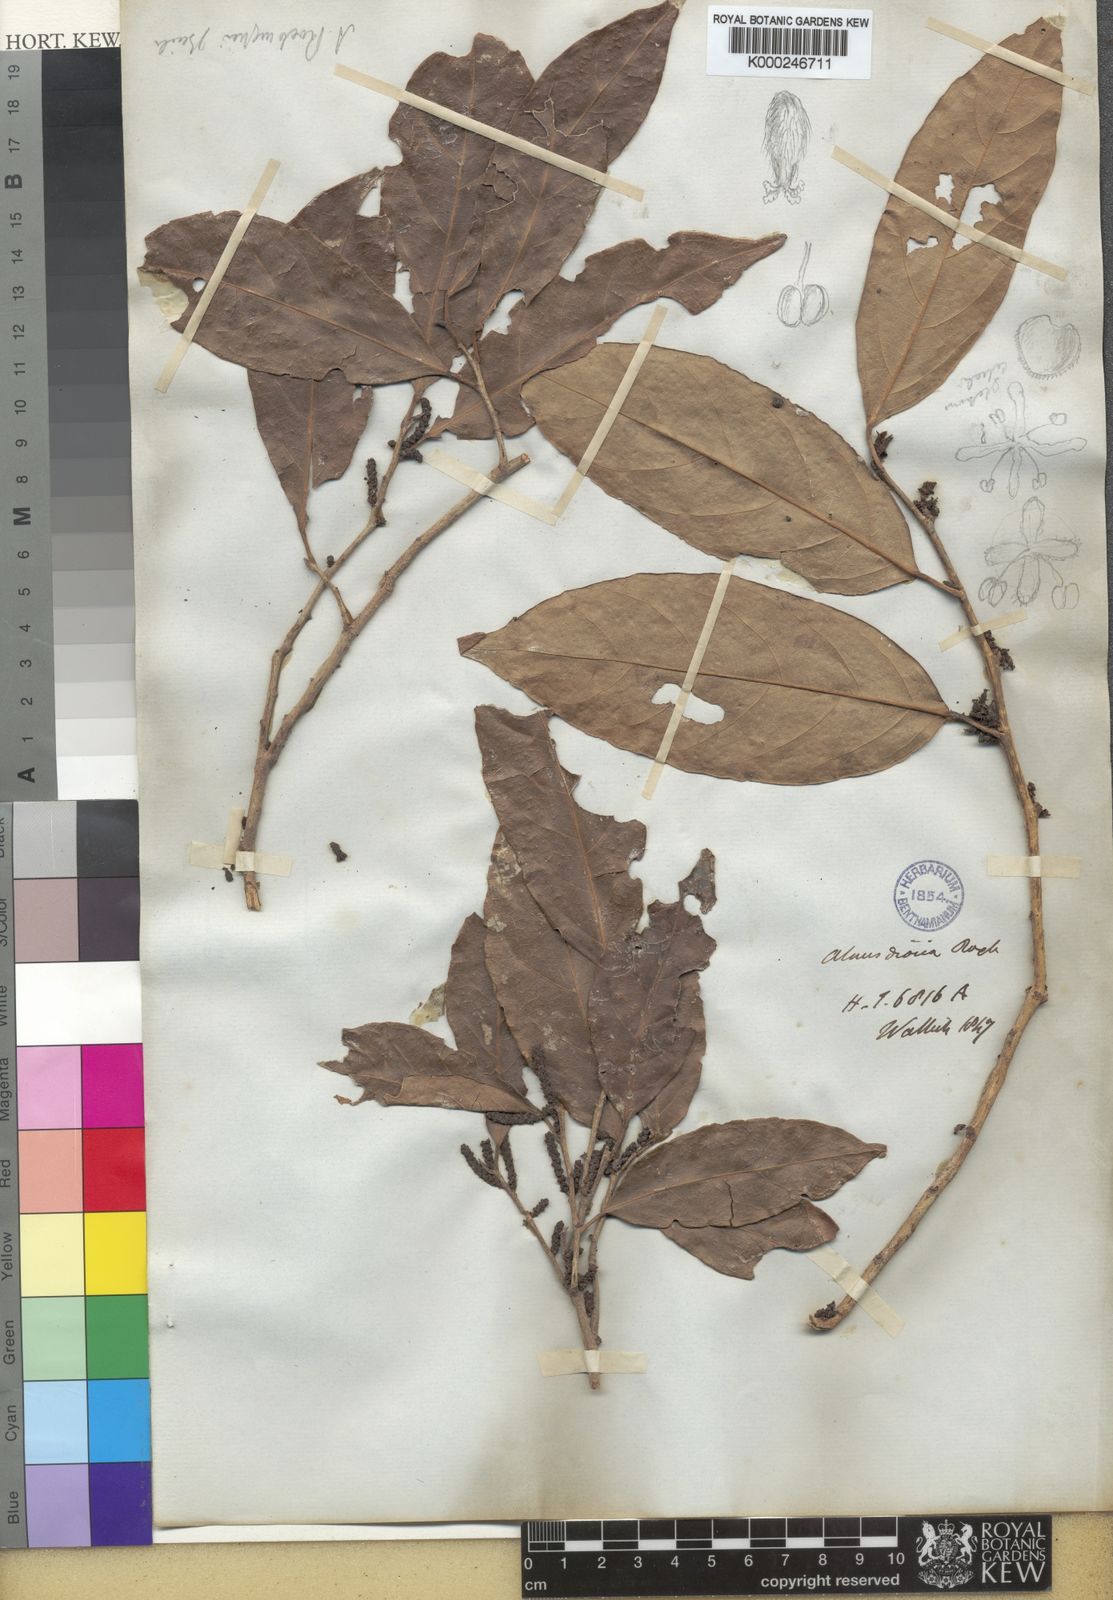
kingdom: Plantae
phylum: Tracheophyta
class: Magnoliopsida
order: Malpighiales
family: Phyllanthaceae
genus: Aporosa
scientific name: Aporosa octandra
